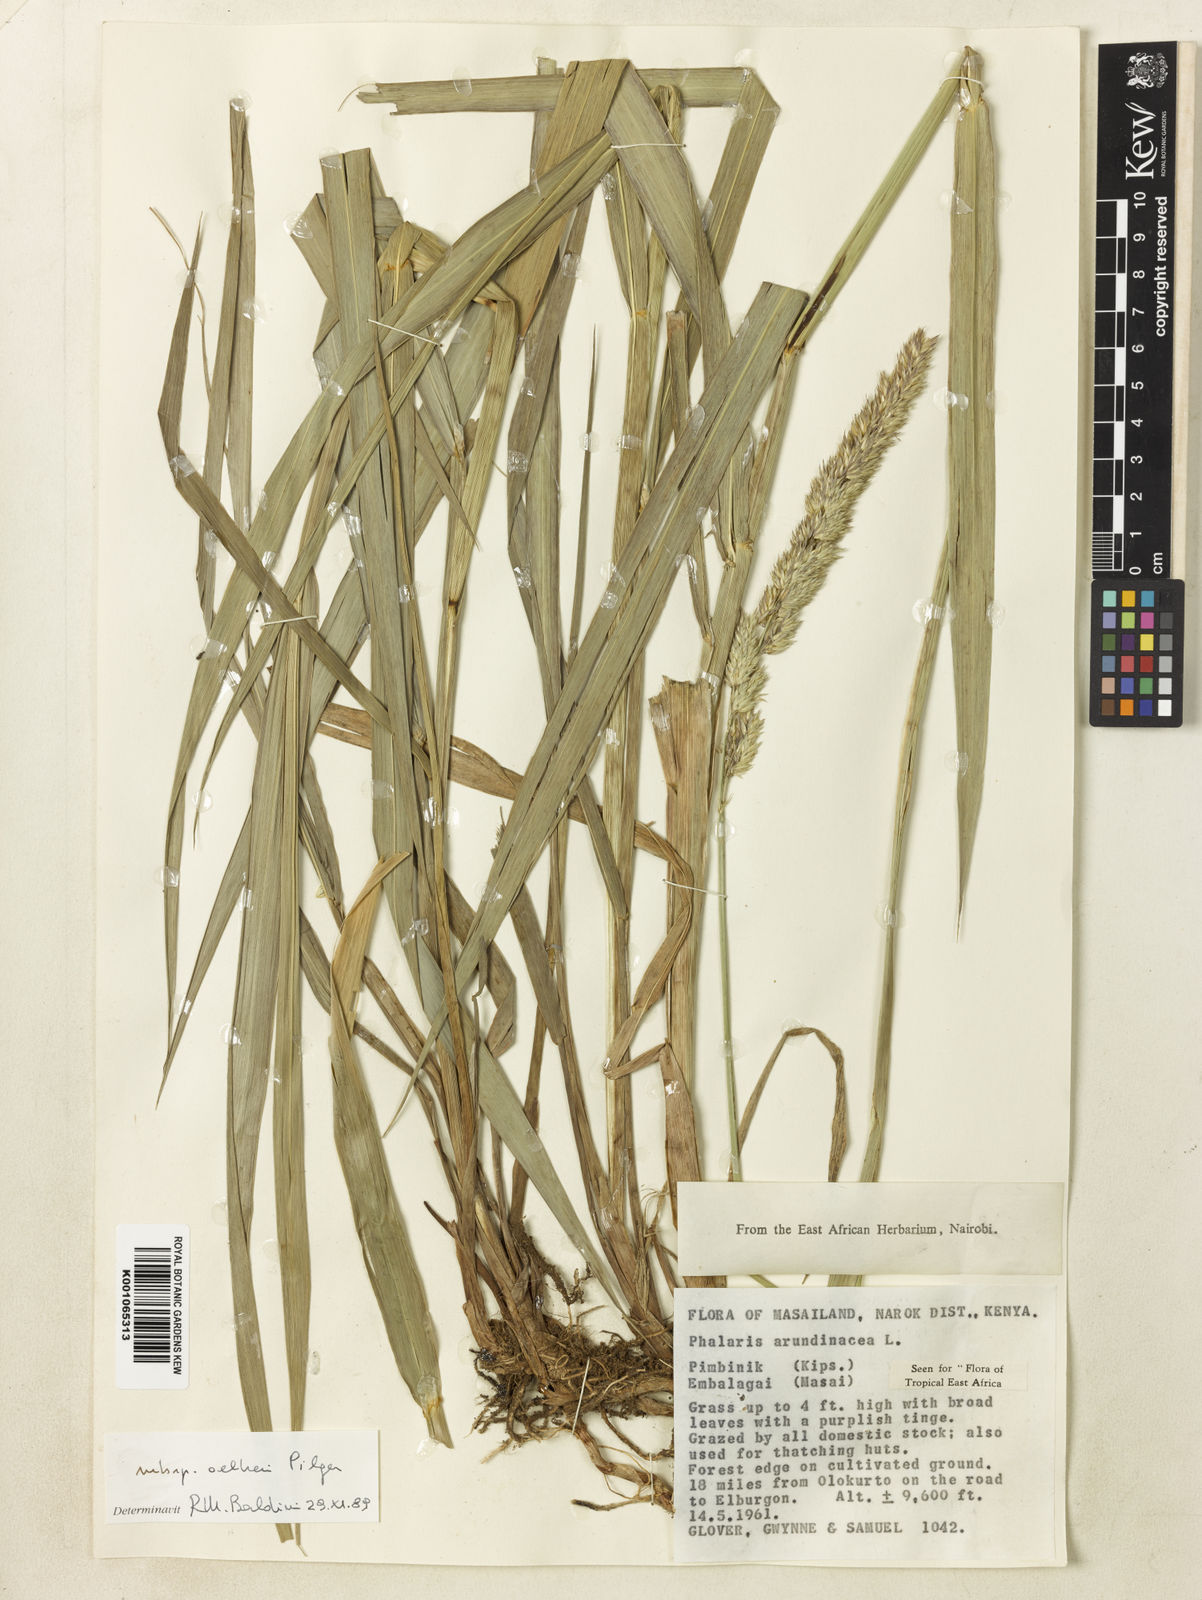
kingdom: Plantae
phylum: Tracheophyta
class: Liliopsida
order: Poales
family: Poaceae
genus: Phalaris
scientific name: Phalaris arundinacea
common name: Reed canary-grass
